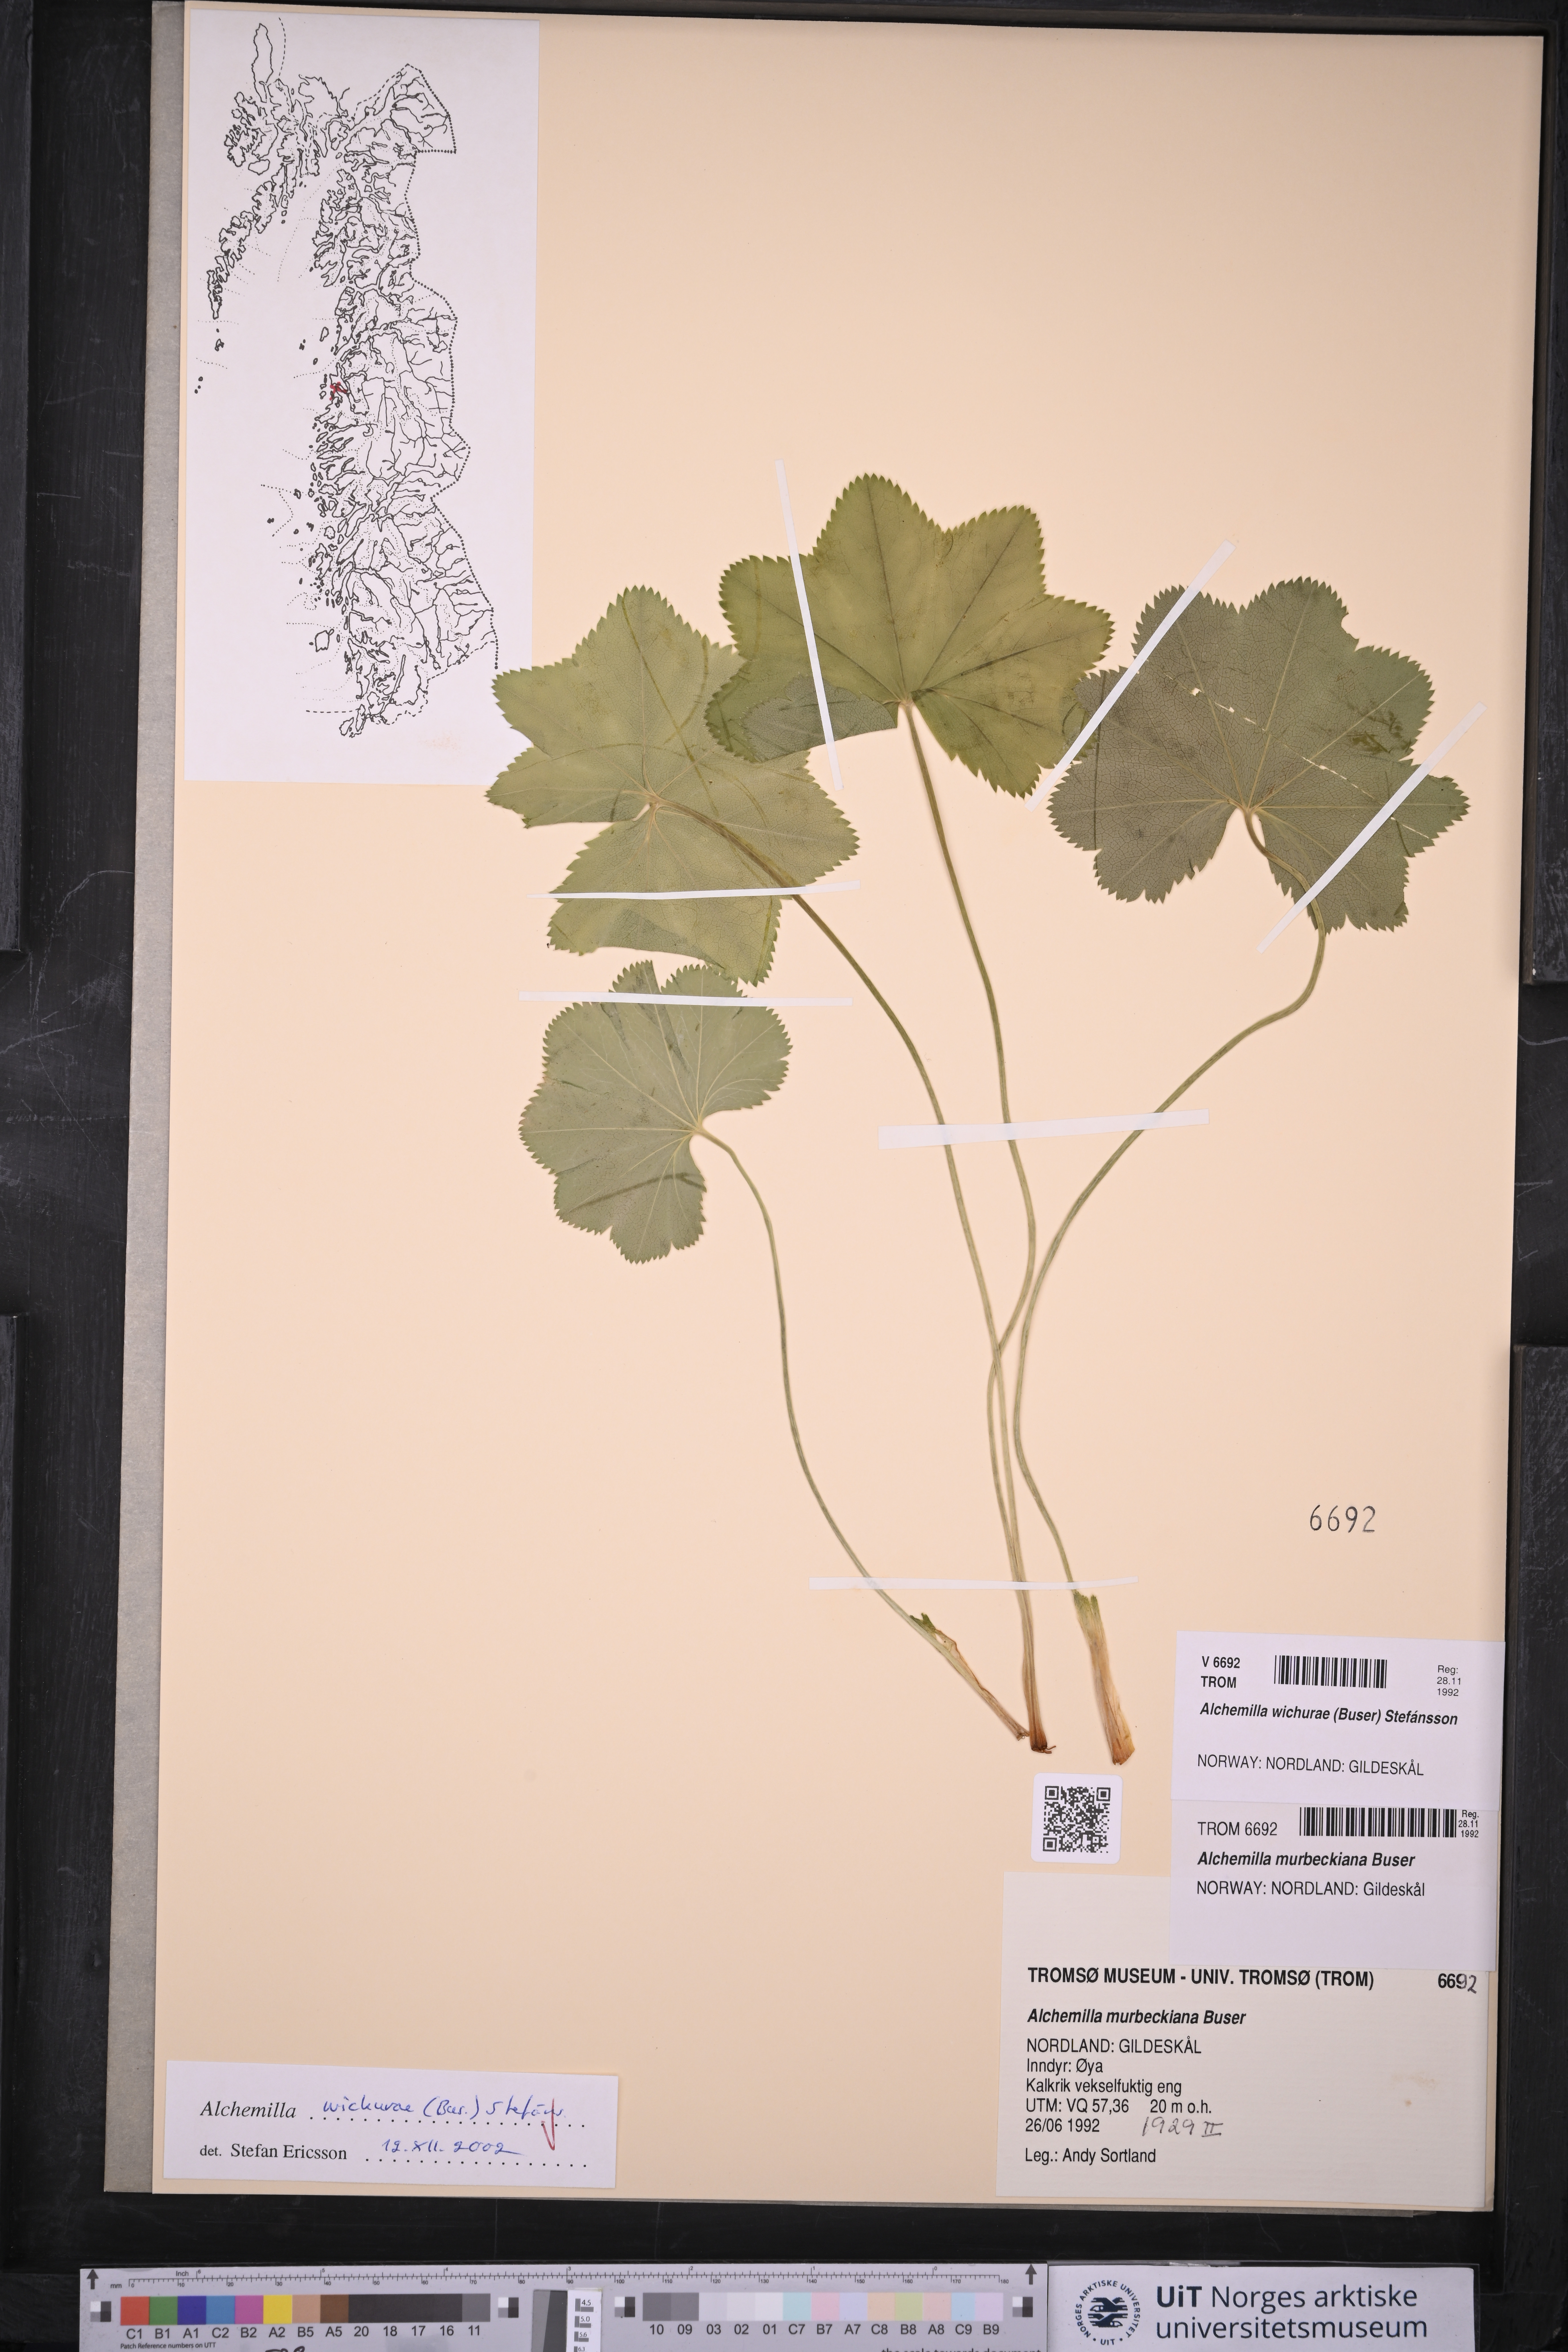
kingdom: Plantae
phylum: Tracheophyta
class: Magnoliopsida
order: Rosales
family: Rosaceae
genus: Alchemilla
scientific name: Alchemilla wichurae
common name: Rock lady's mantle
